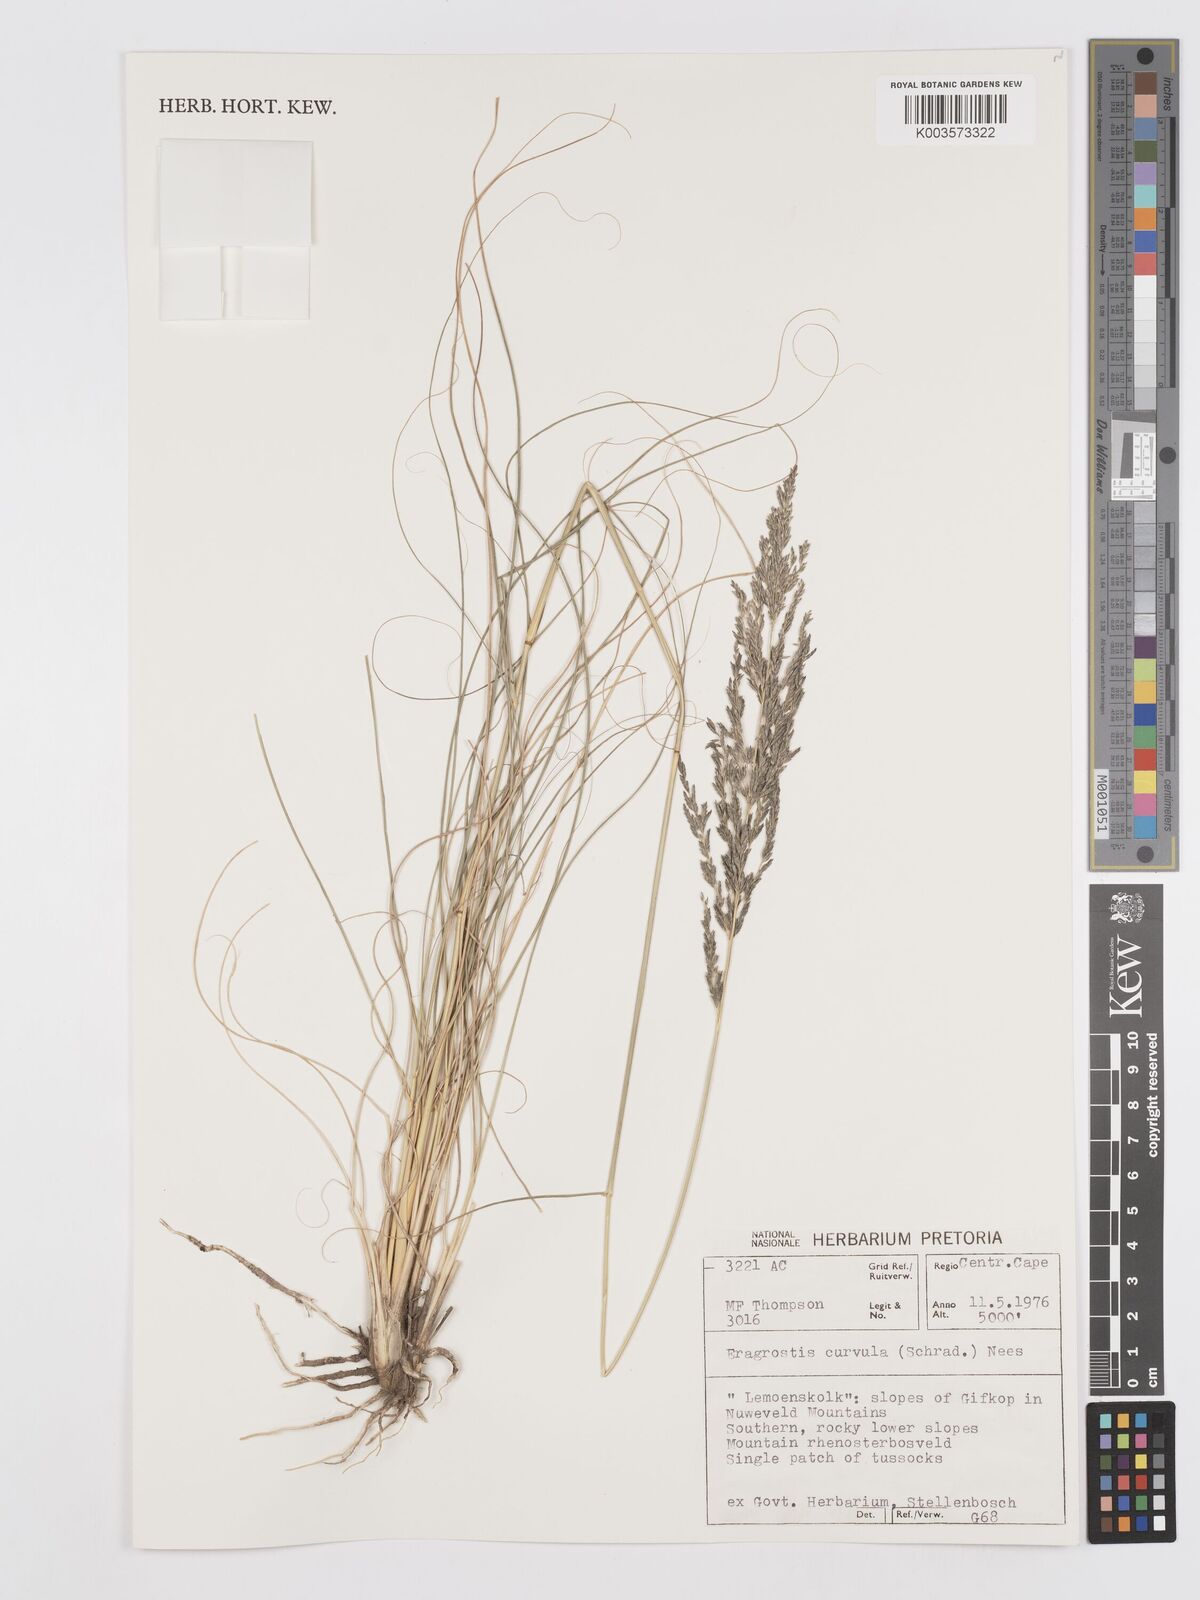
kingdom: Plantae
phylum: Tracheophyta
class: Liliopsida
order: Poales
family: Poaceae
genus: Eragrostis
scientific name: Eragrostis curvula
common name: African love-grass
